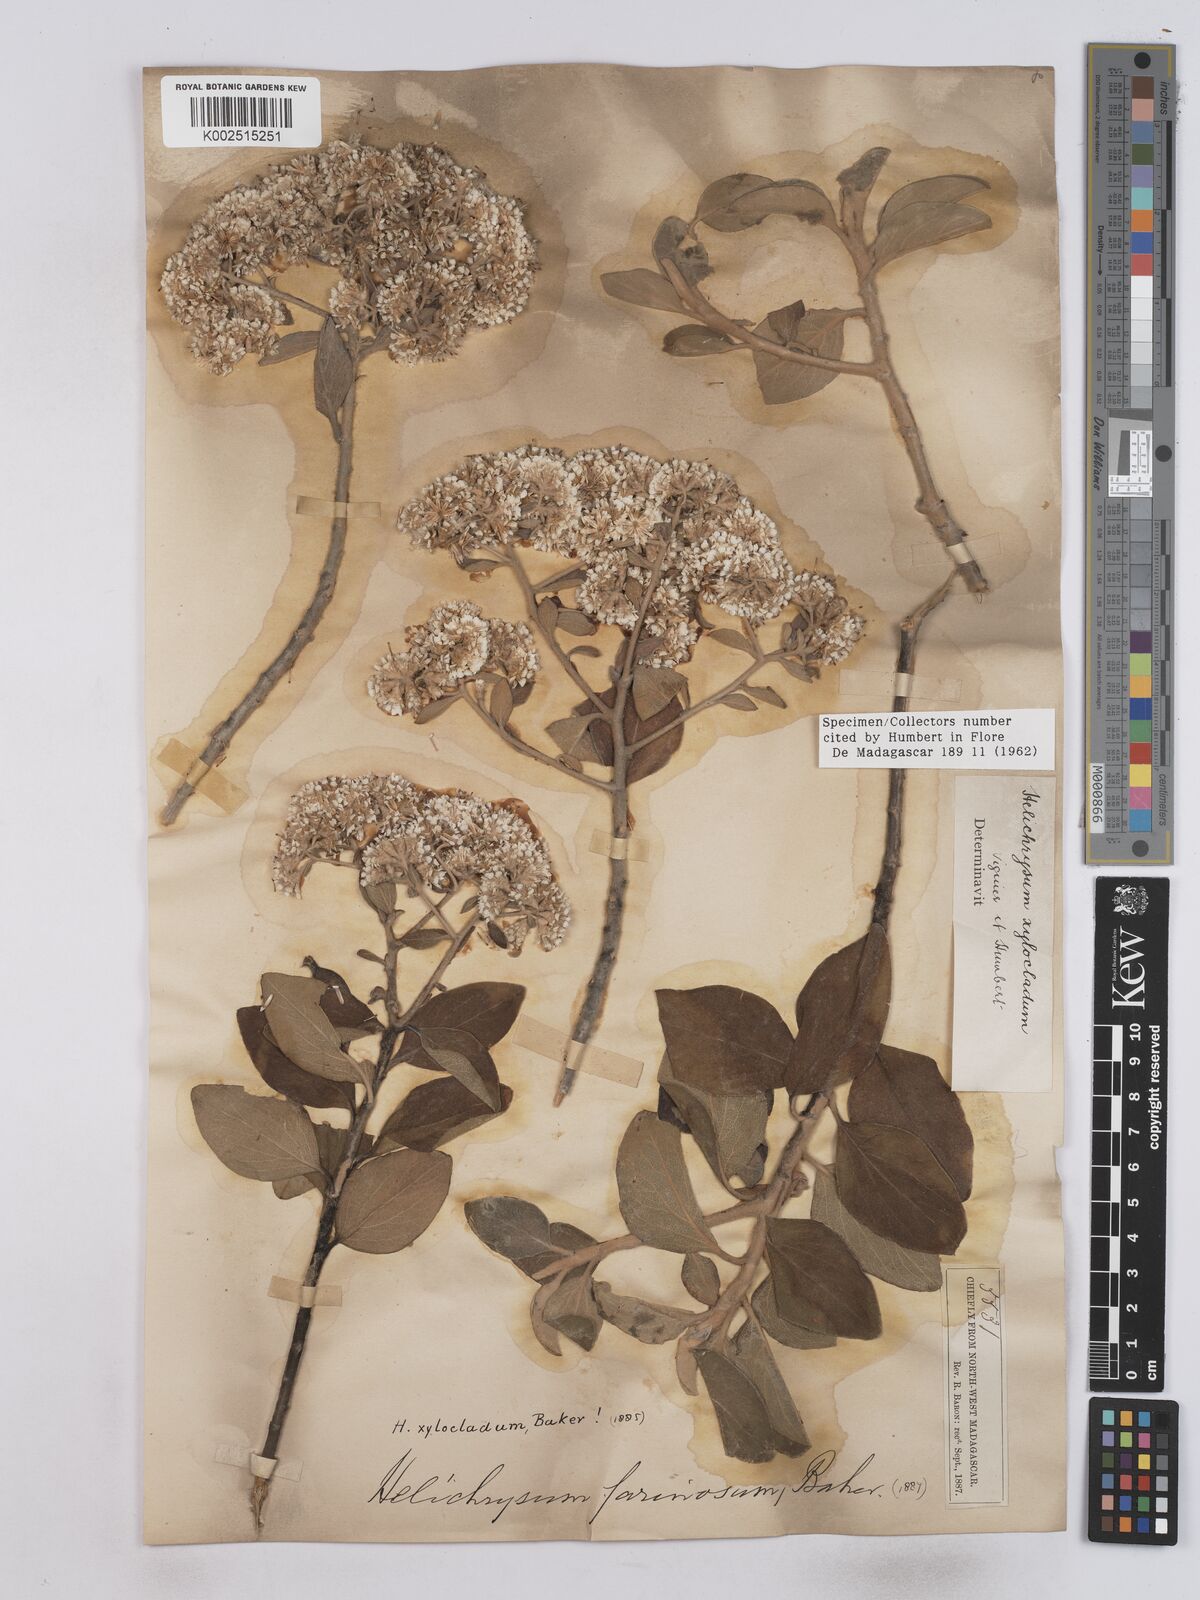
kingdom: Plantae
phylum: Tracheophyta
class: Magnoliopsida
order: Asterales
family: Asteraceae
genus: Helichrysum
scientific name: Helichrysum xylocladum
